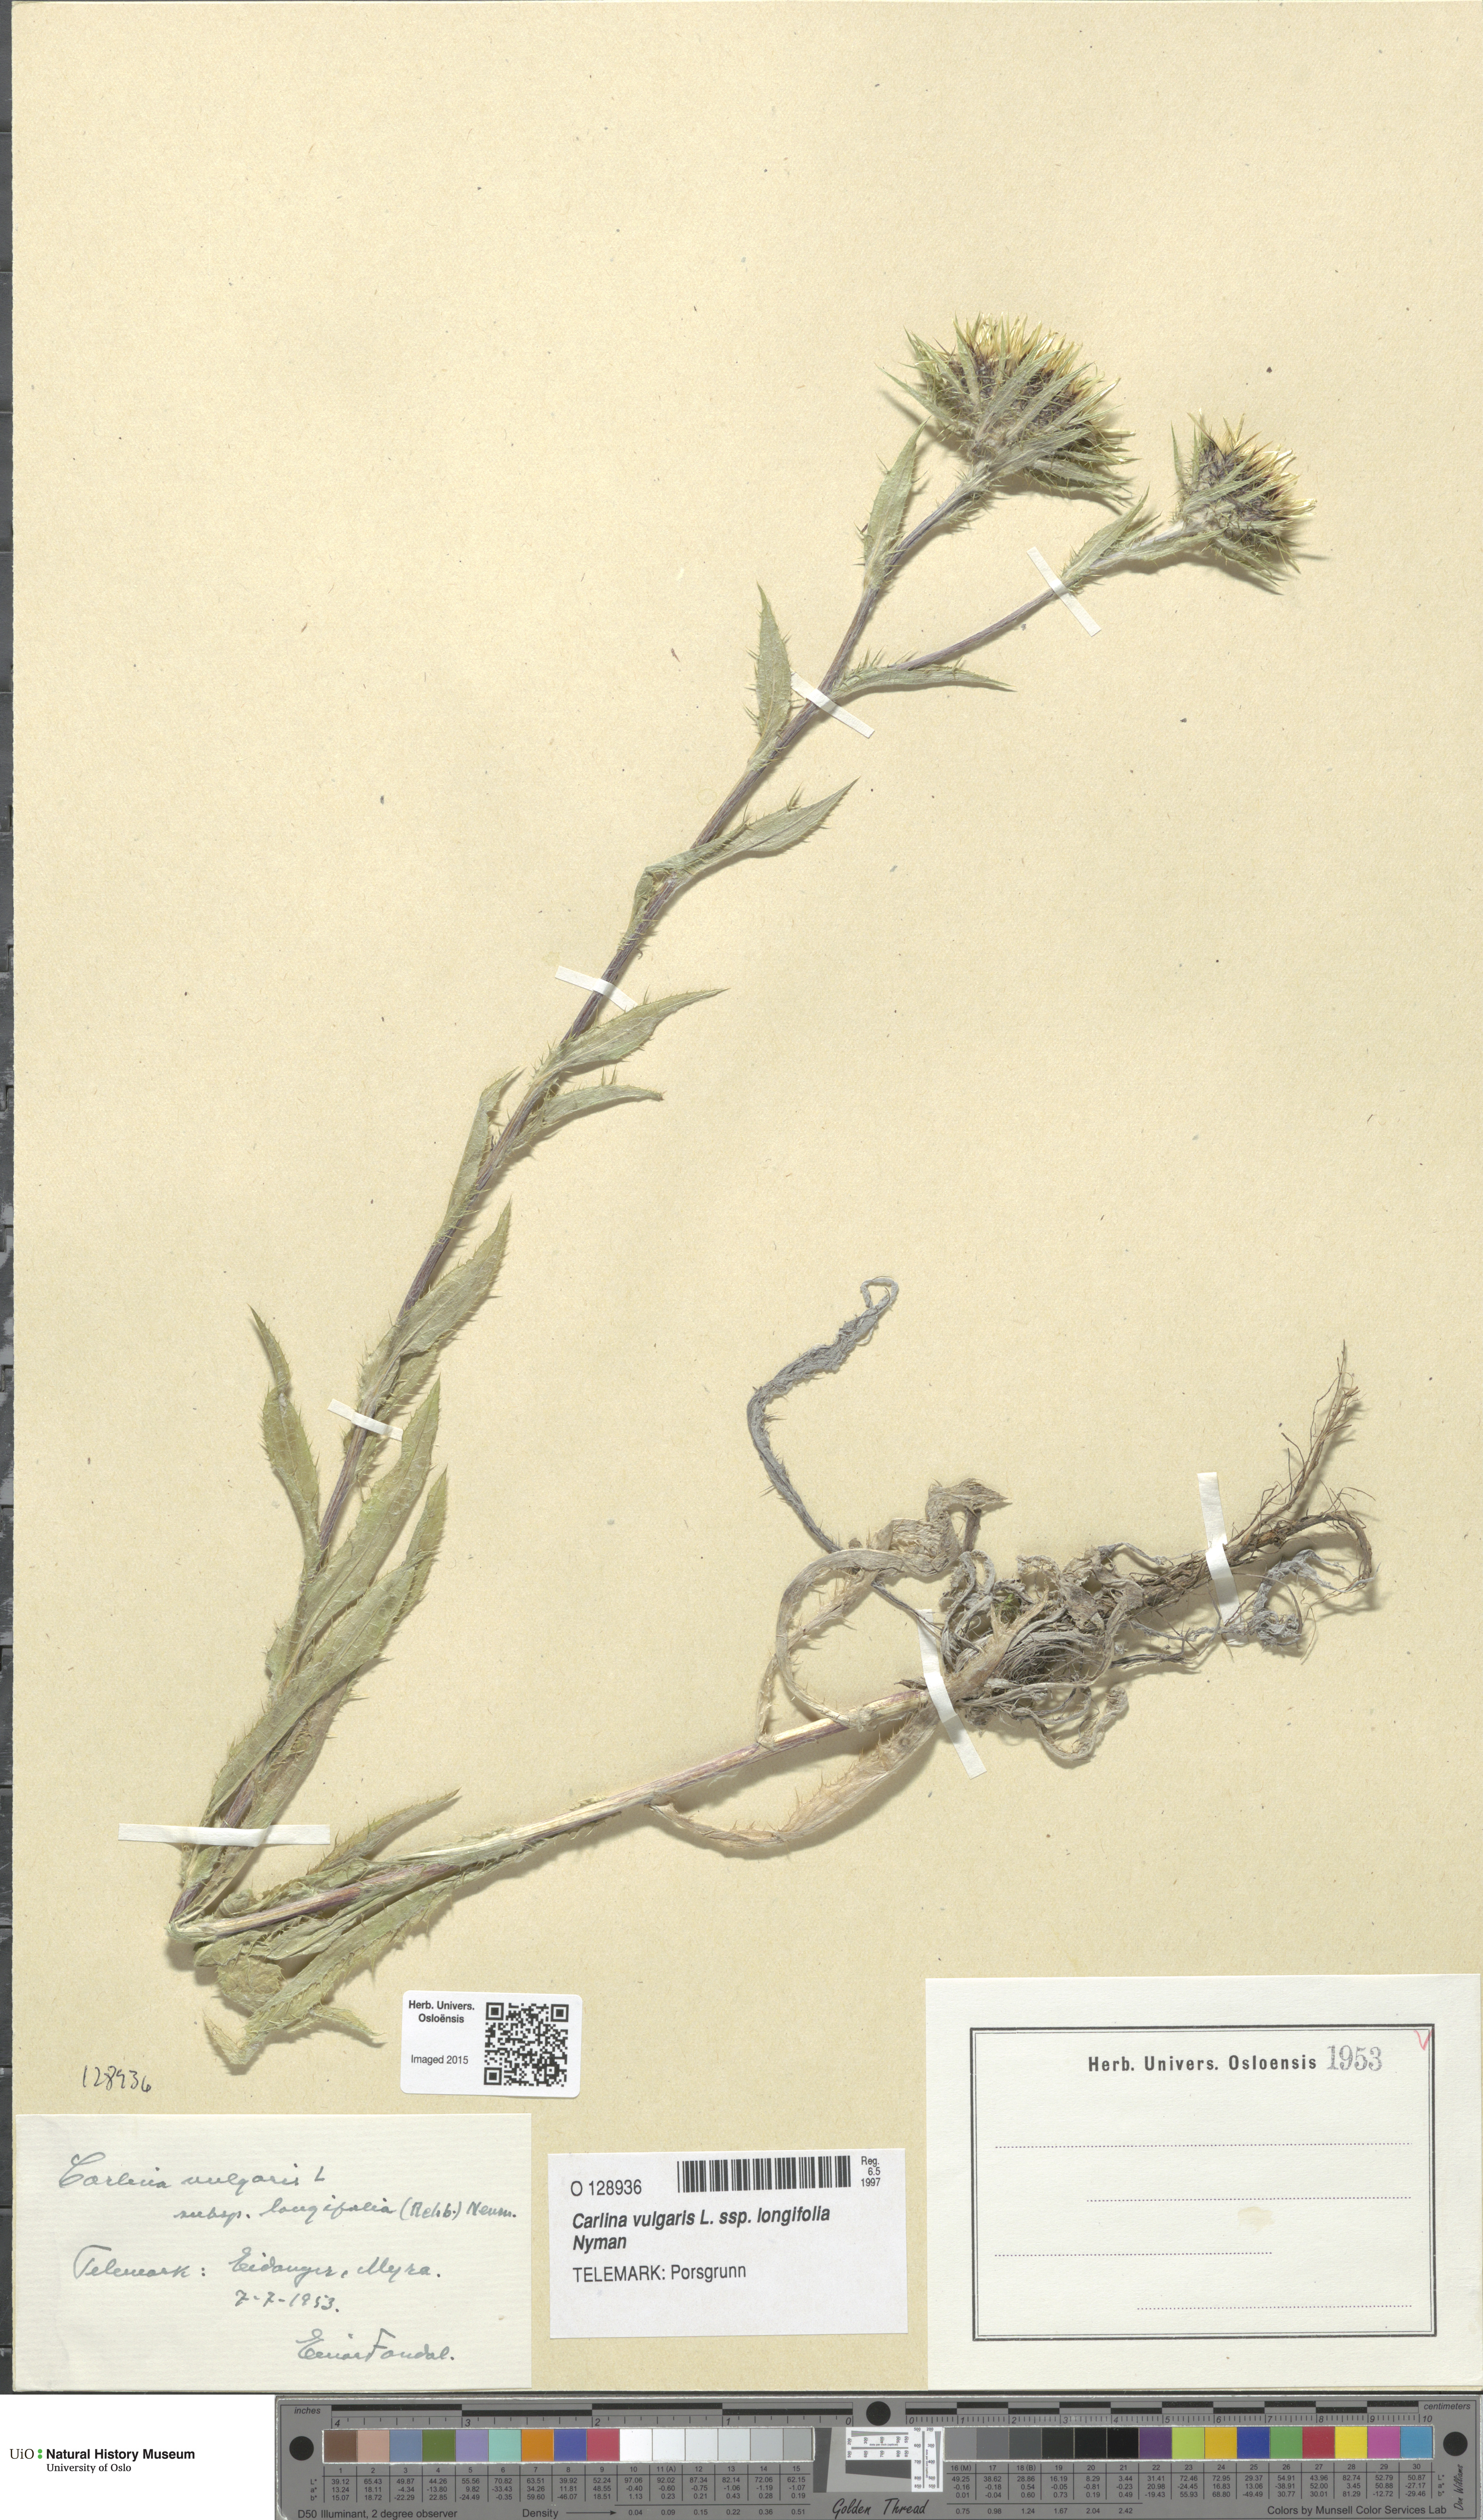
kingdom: Plantae
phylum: Tracheophyta
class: Magnoliopsida
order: Asterales
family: Asteraceae
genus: Carlina
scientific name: Carlina biebersteinii
